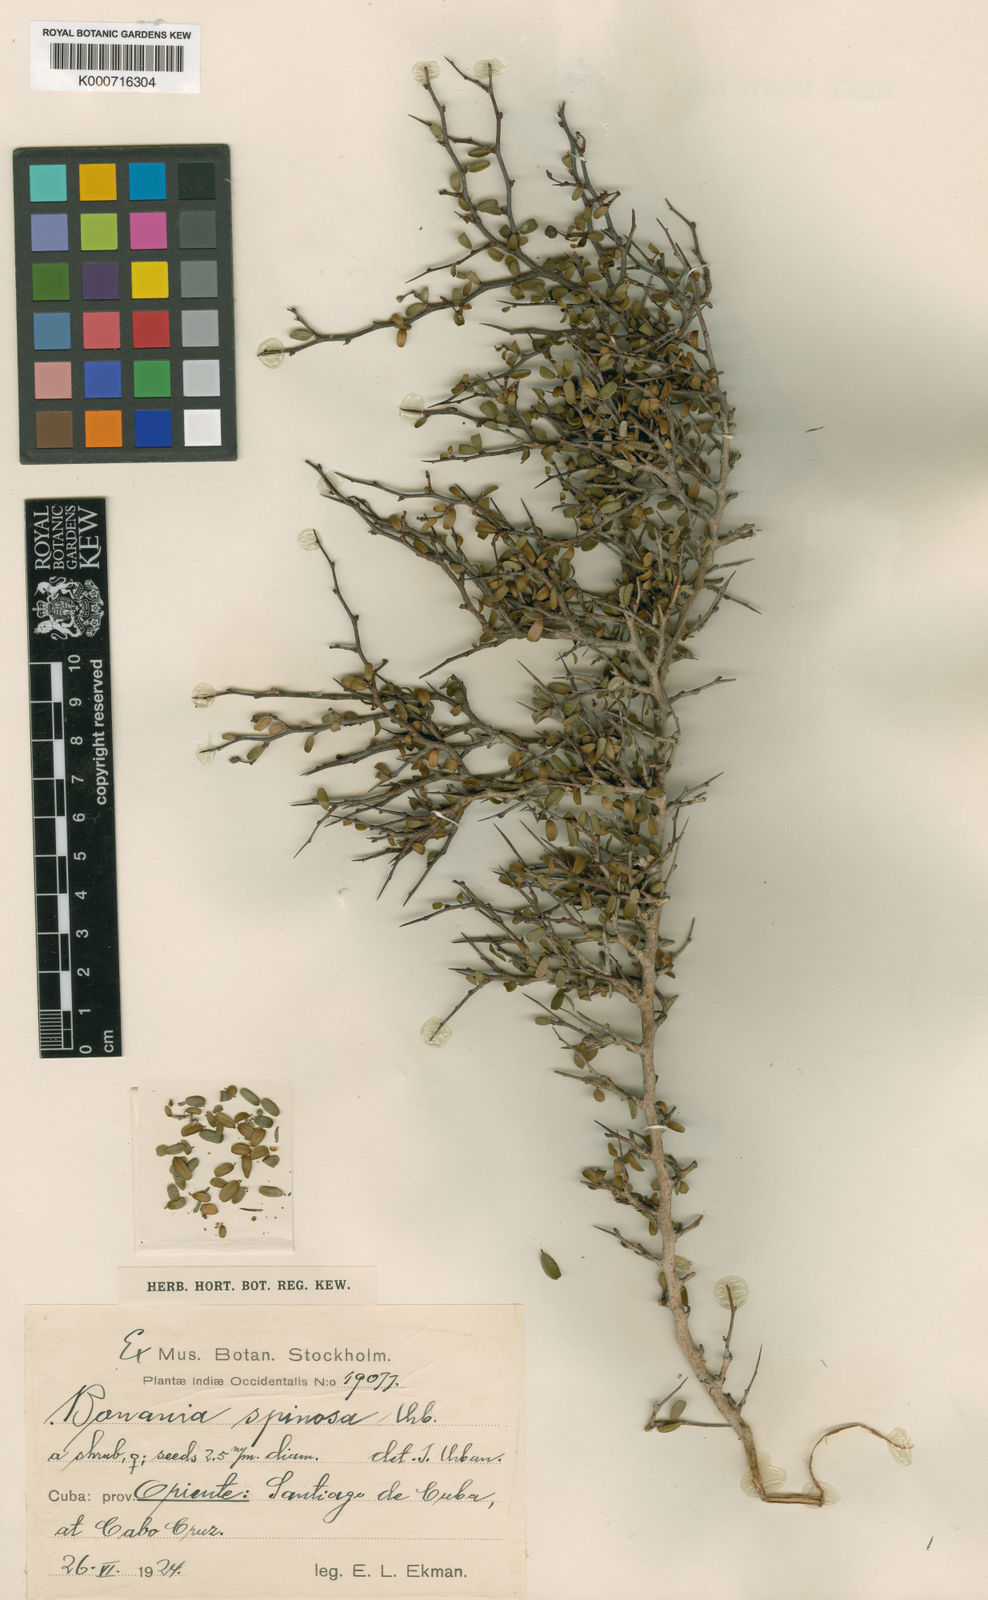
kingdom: Plantae
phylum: Tracheophyta
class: Magnoliopsida
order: Malpighiales
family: Euphorbiaceae
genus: Bonania
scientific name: Bonania elliptica
